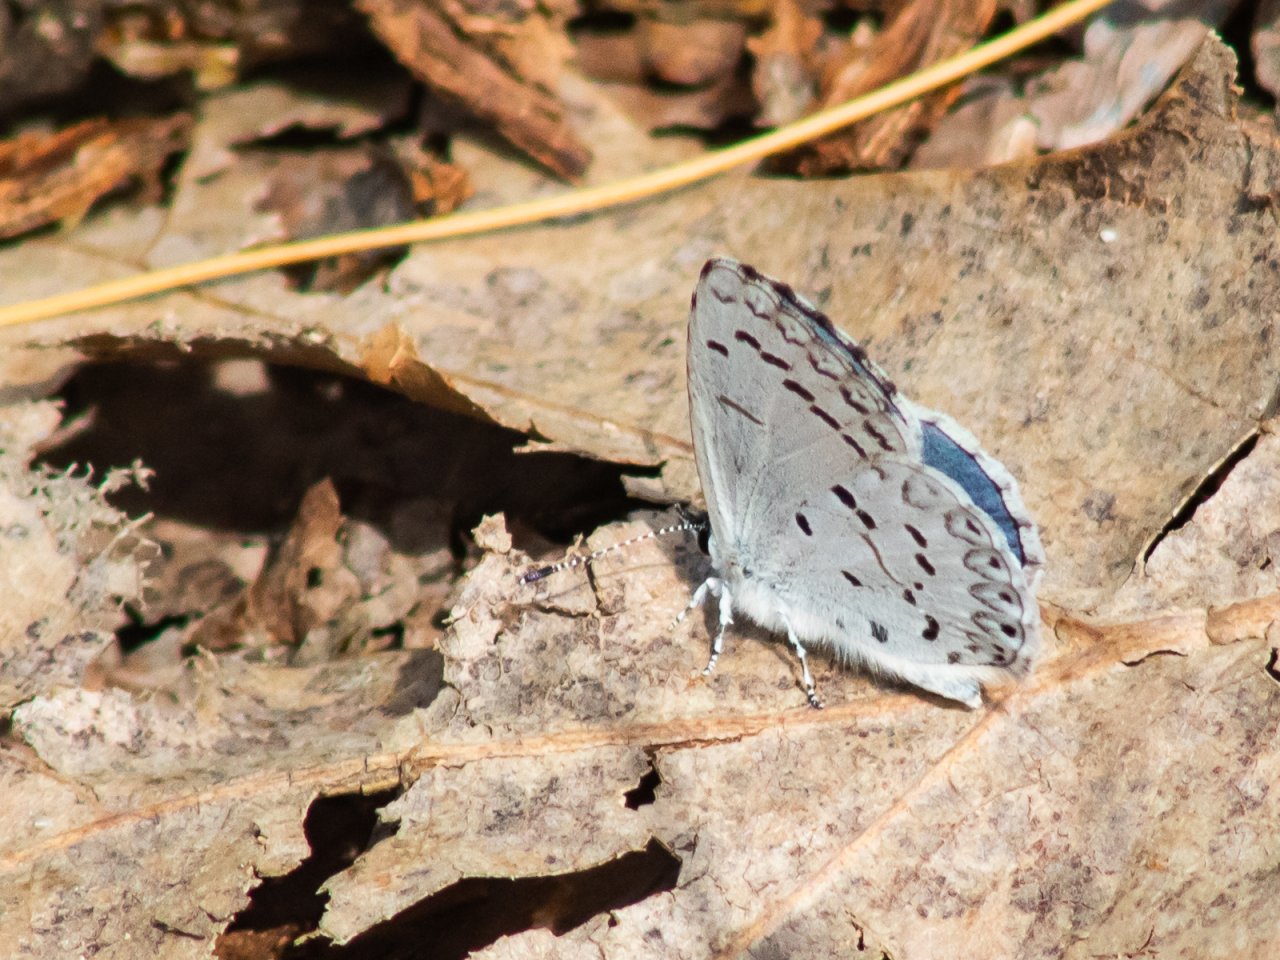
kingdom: Animalia
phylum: Arthropoda
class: Insecta
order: Lepidoptera
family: Lycaenidae
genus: Celastrina
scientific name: Celastrina
